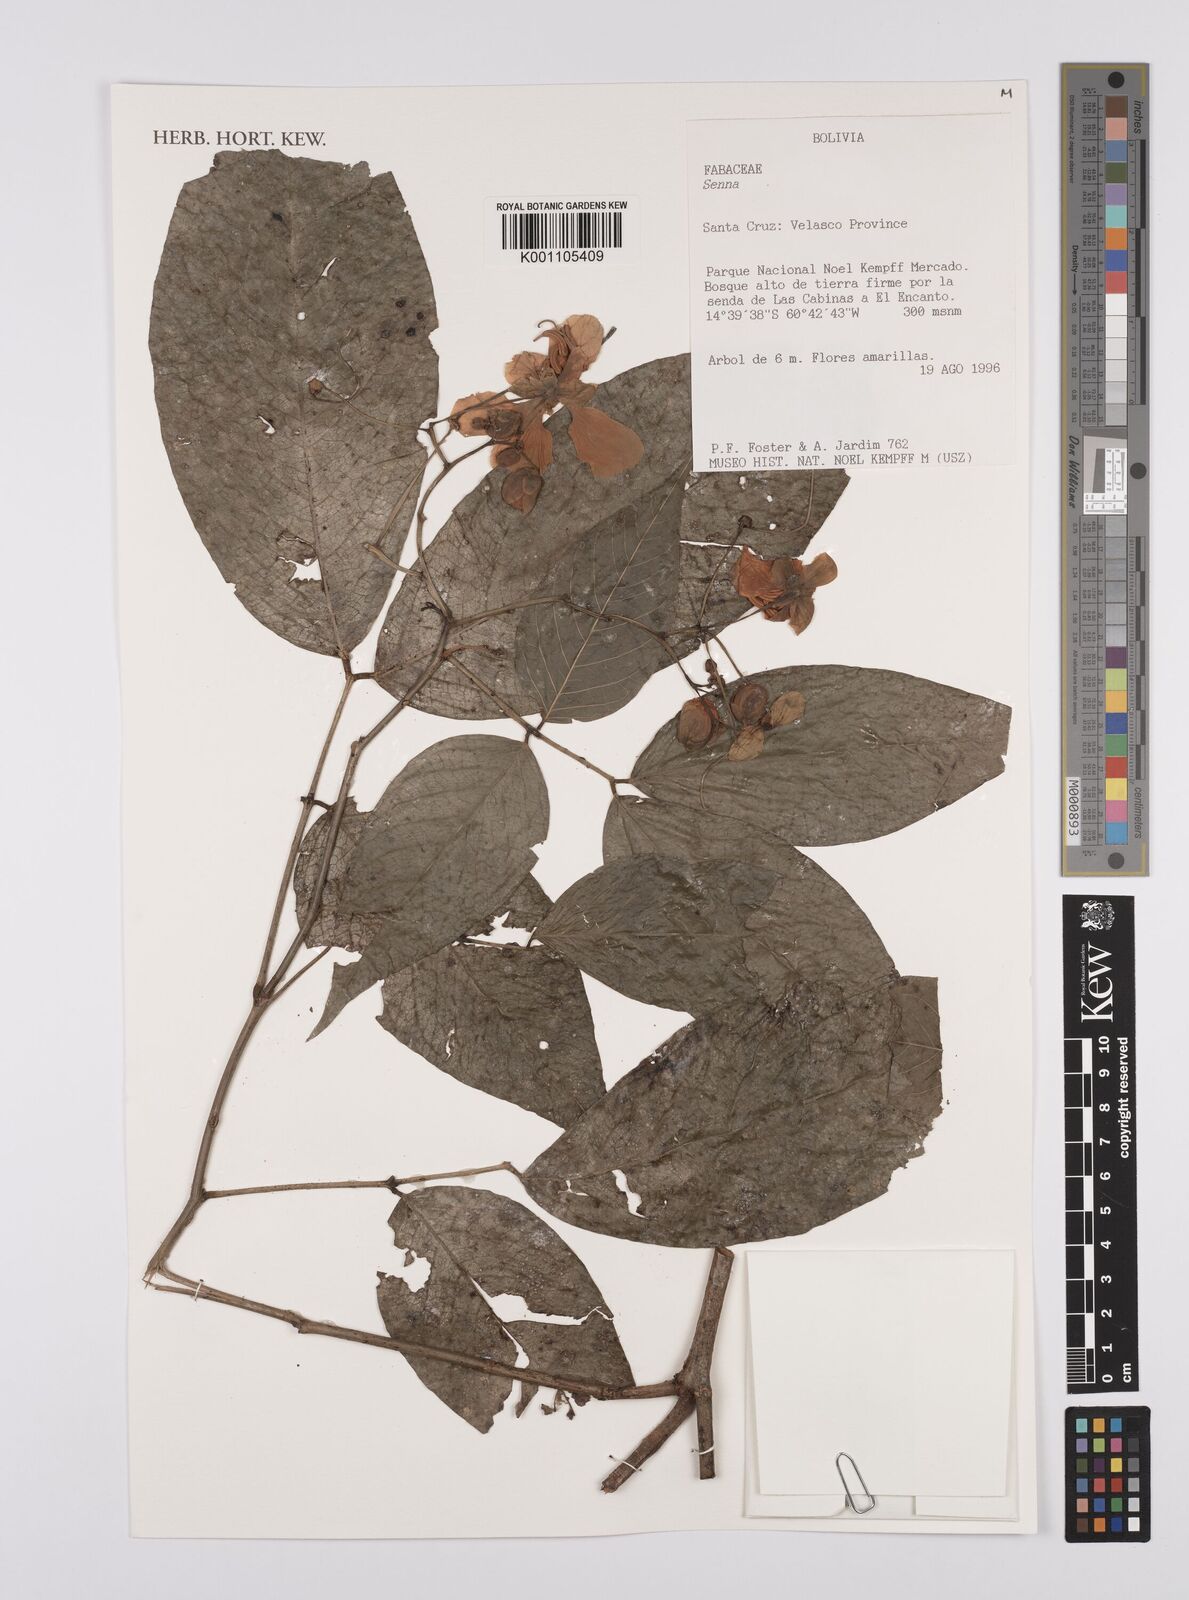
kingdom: Plantae
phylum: Tracheophyta
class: Magnoliopsida
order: Fabales
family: Fabaceae
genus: Senna
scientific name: Senna
